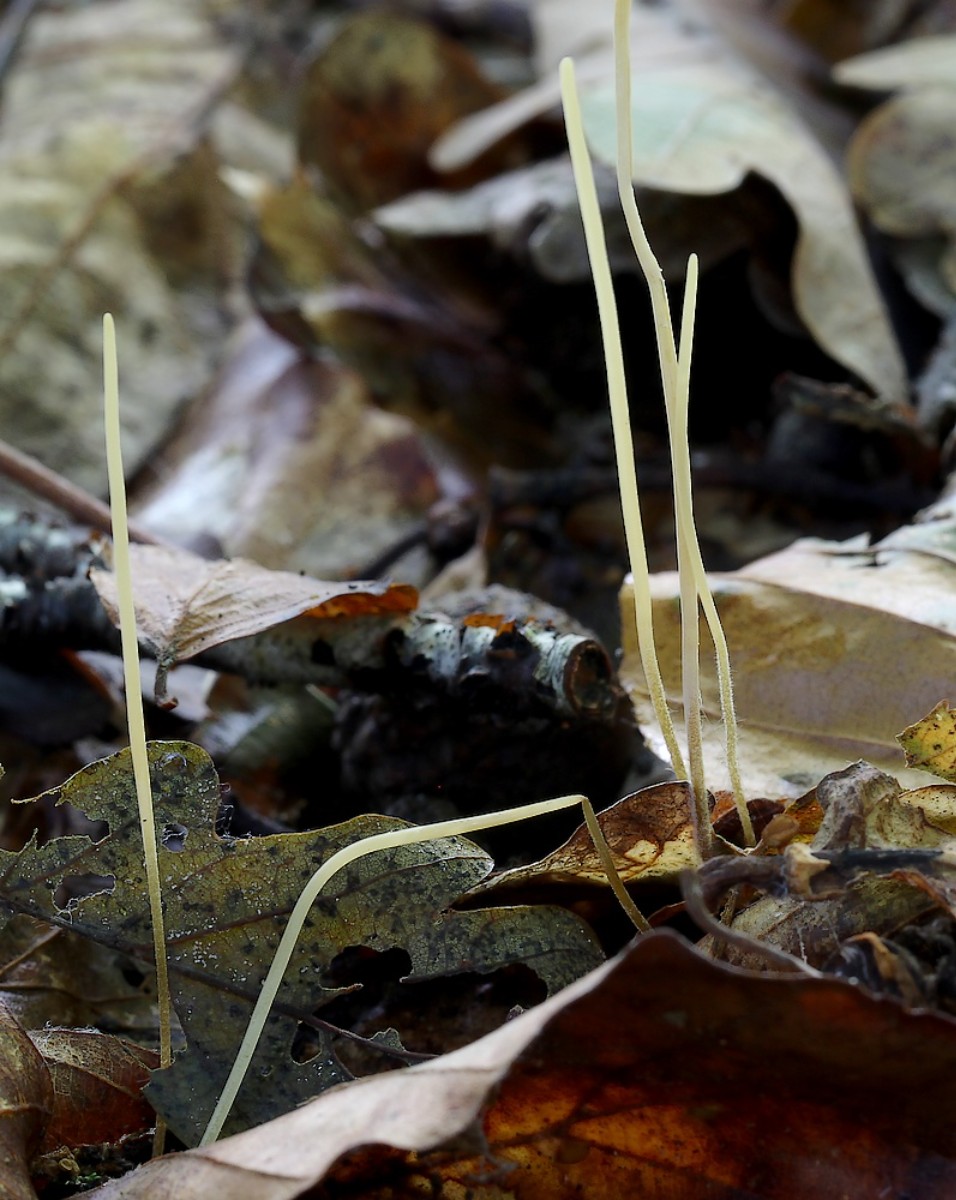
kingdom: Fungi
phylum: Basidiomycota
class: Agaricomycetes
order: Agaricales
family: Typhulaceae
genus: Typhula
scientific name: Typhula juncea
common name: trådagtig rørkølle
